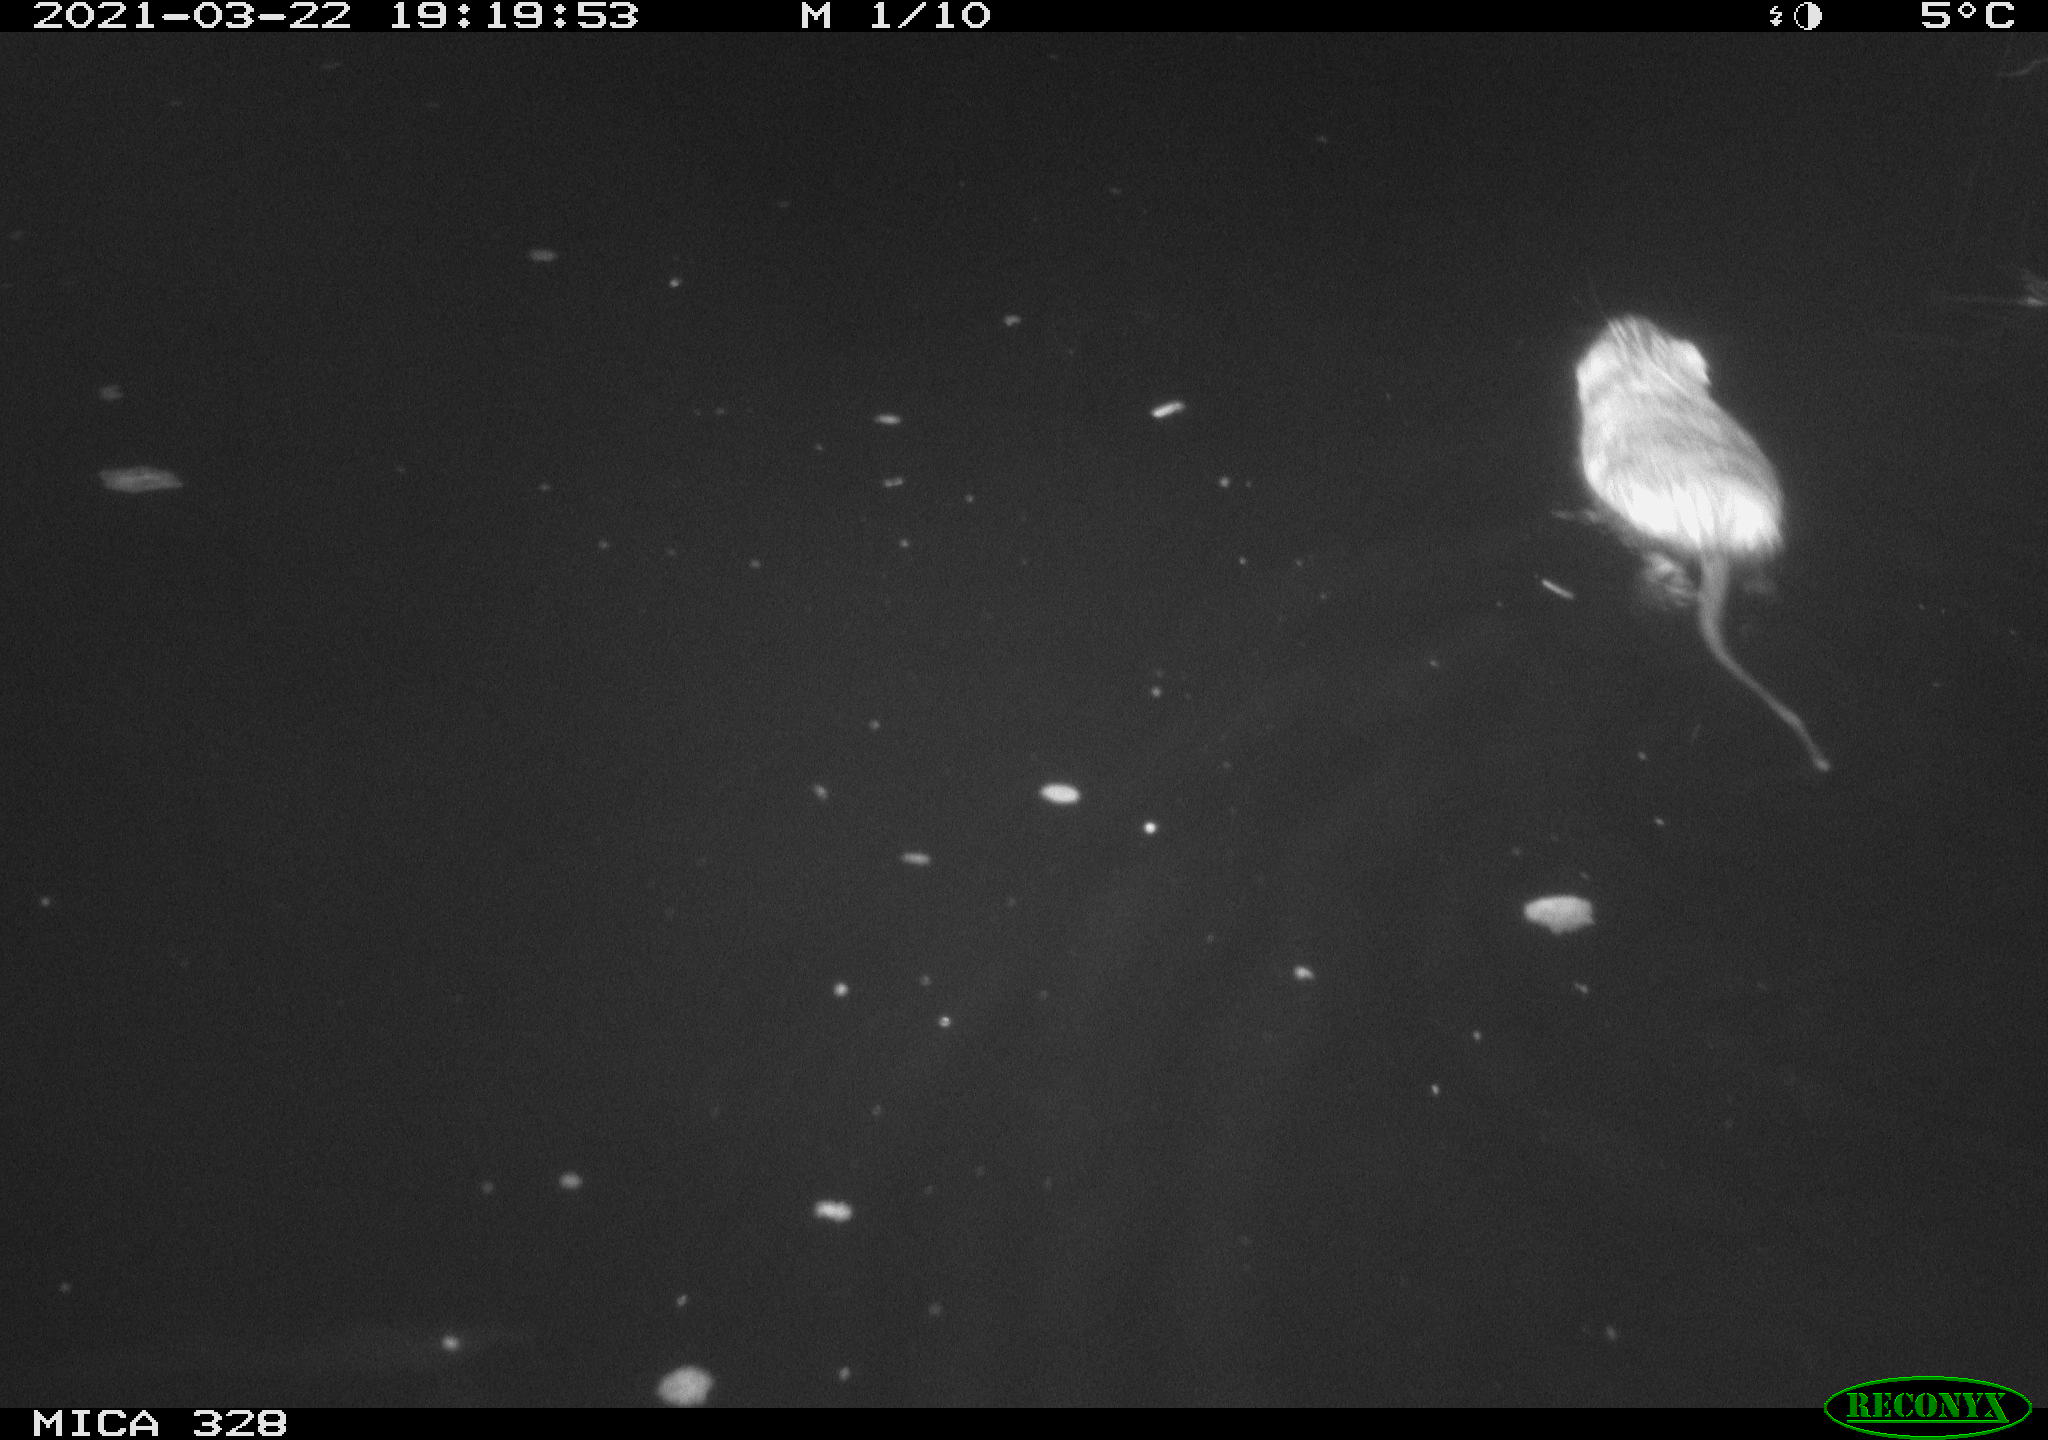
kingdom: Animalia
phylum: Chordata
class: Mammalia
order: Rodentia
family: Cricetidae
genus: Ondatra
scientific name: Ondatra zibethicus
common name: Muskrat
